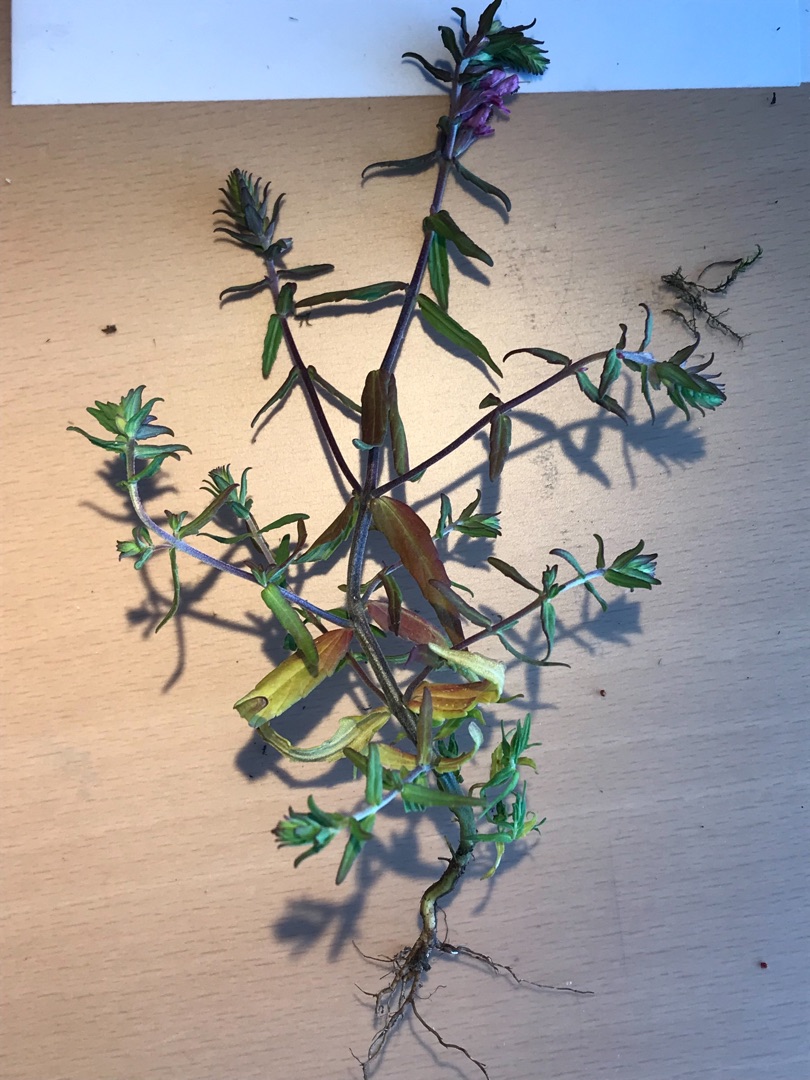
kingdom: Plantae
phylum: Tracheophyta
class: Magnoliopsida
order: Lamiales
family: Orobanchaceae
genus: Odontites
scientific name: Odontites
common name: Rødtopslægten
